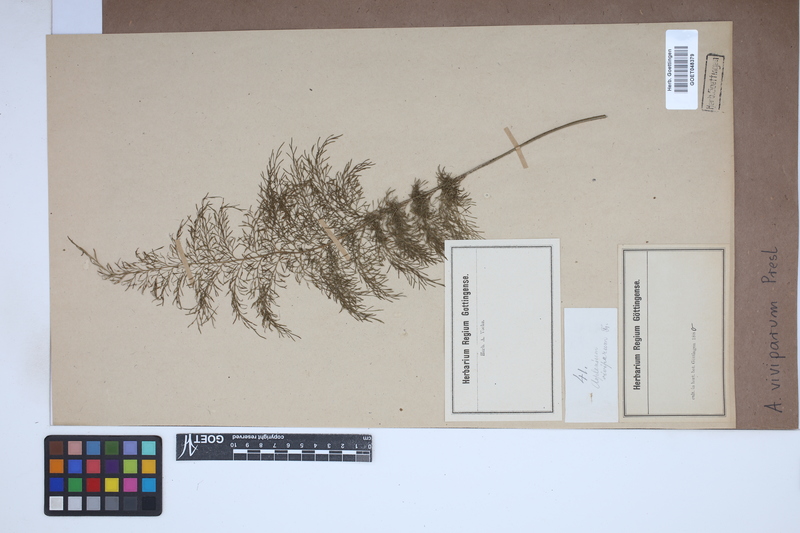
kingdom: Plantae
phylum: Tracheophyta
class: Polypodiopsida
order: Polypodiales
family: Aspleniaceae
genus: Asplenium
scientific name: Asplenium daucifolium
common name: Mauritius spleenwort
